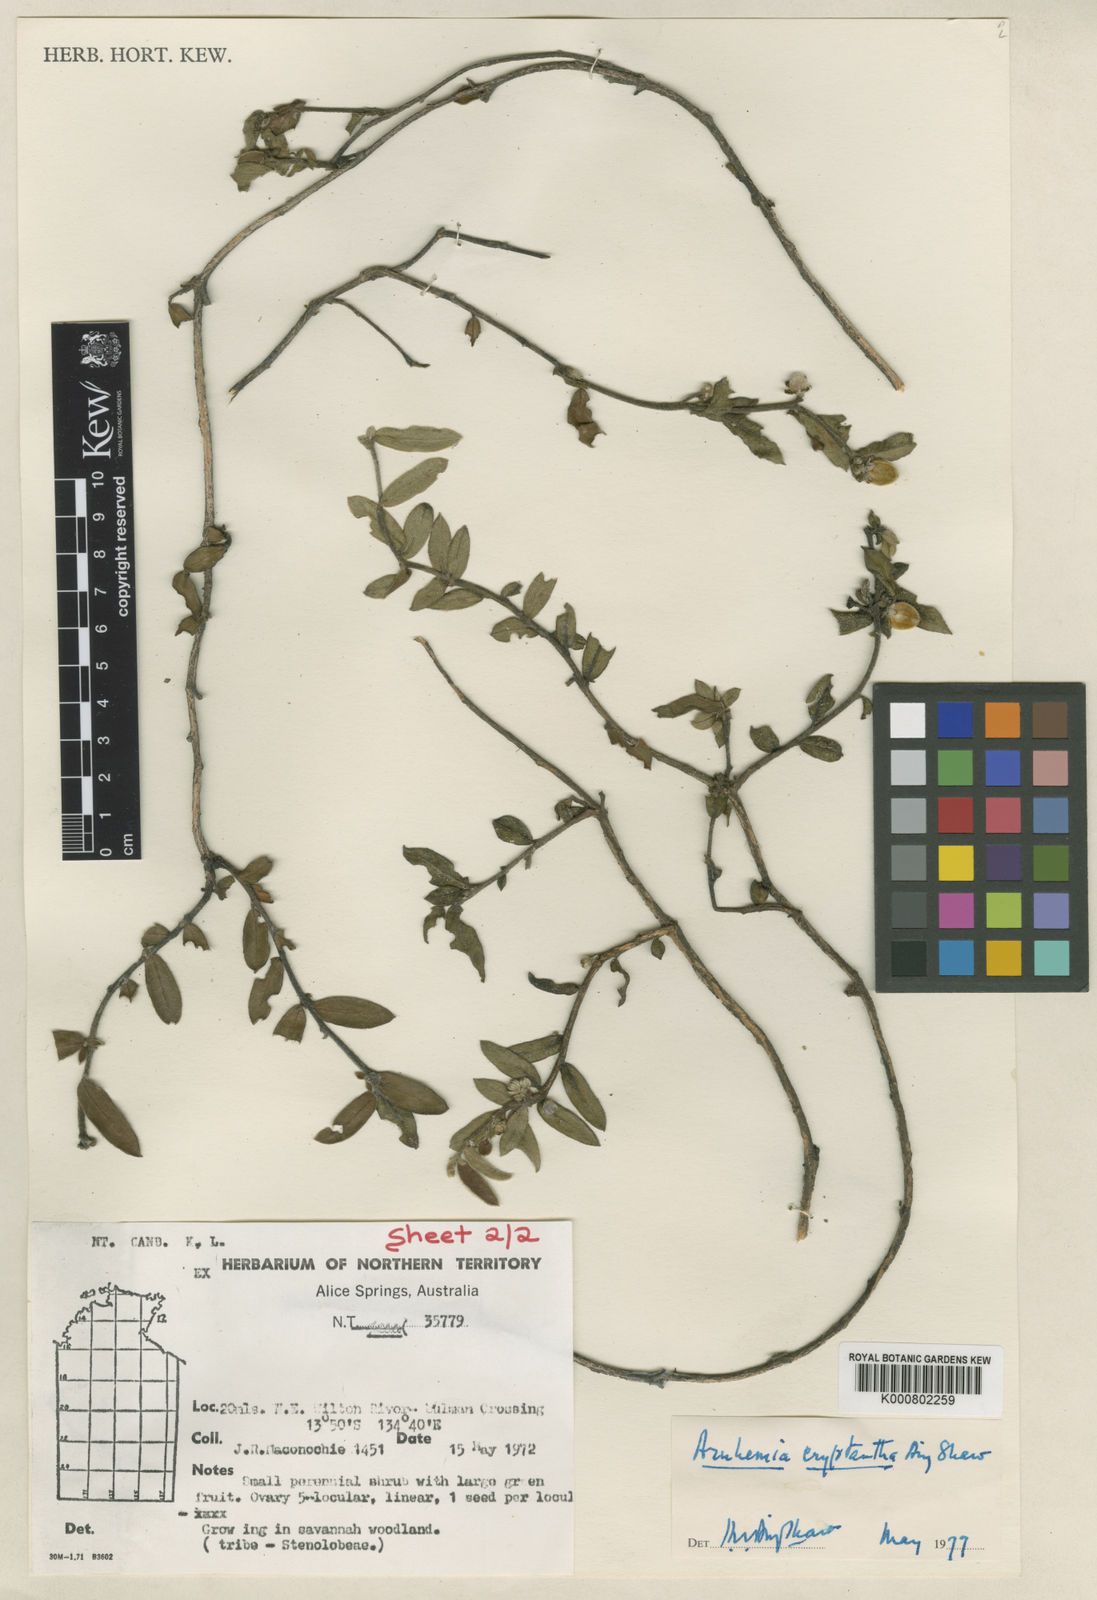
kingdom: Plantae
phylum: Tracheophyta
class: Magnoliopsida
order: Malvales
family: Thymelaeaceae
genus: Arnhemia
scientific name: Arnhemia cryptantha
